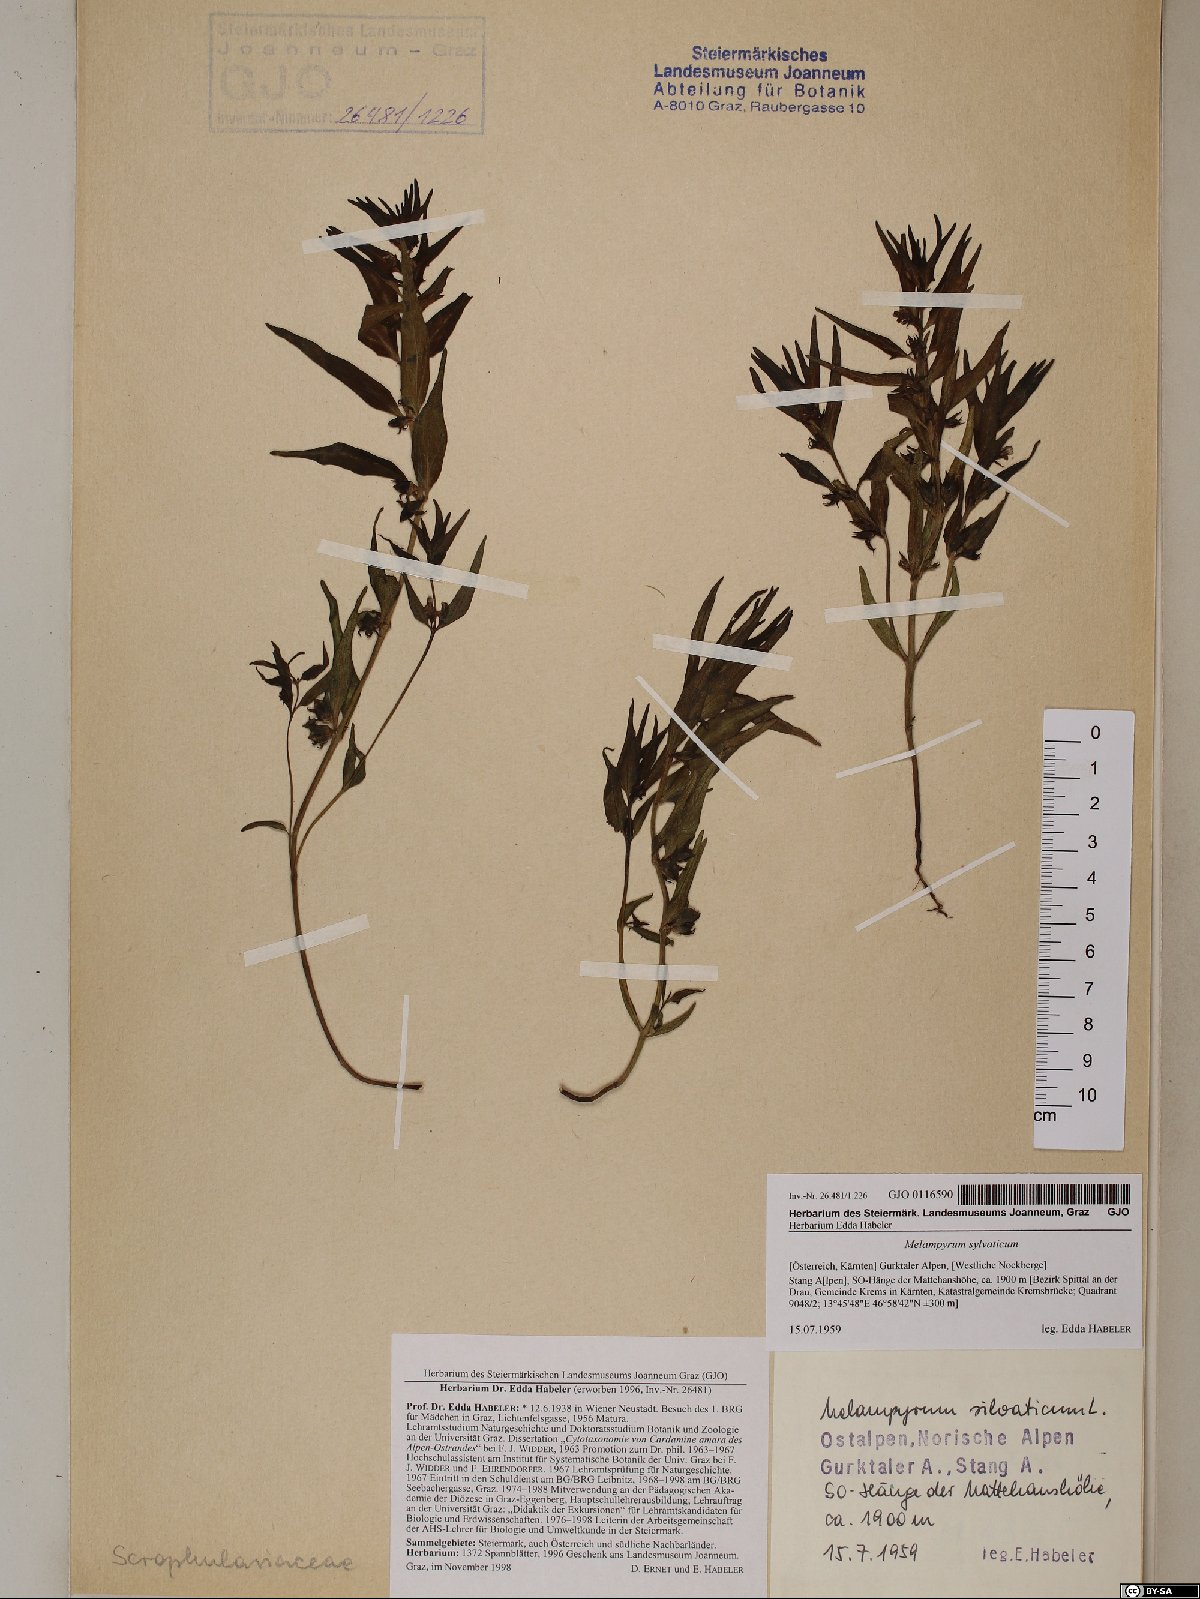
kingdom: Plantae
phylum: Tracheophyta
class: Magnoliopsida
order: Lamiales
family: Orobanchaceae
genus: Melampyrum
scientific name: Melampyrum sylvaticum
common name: Small cow-wheat
